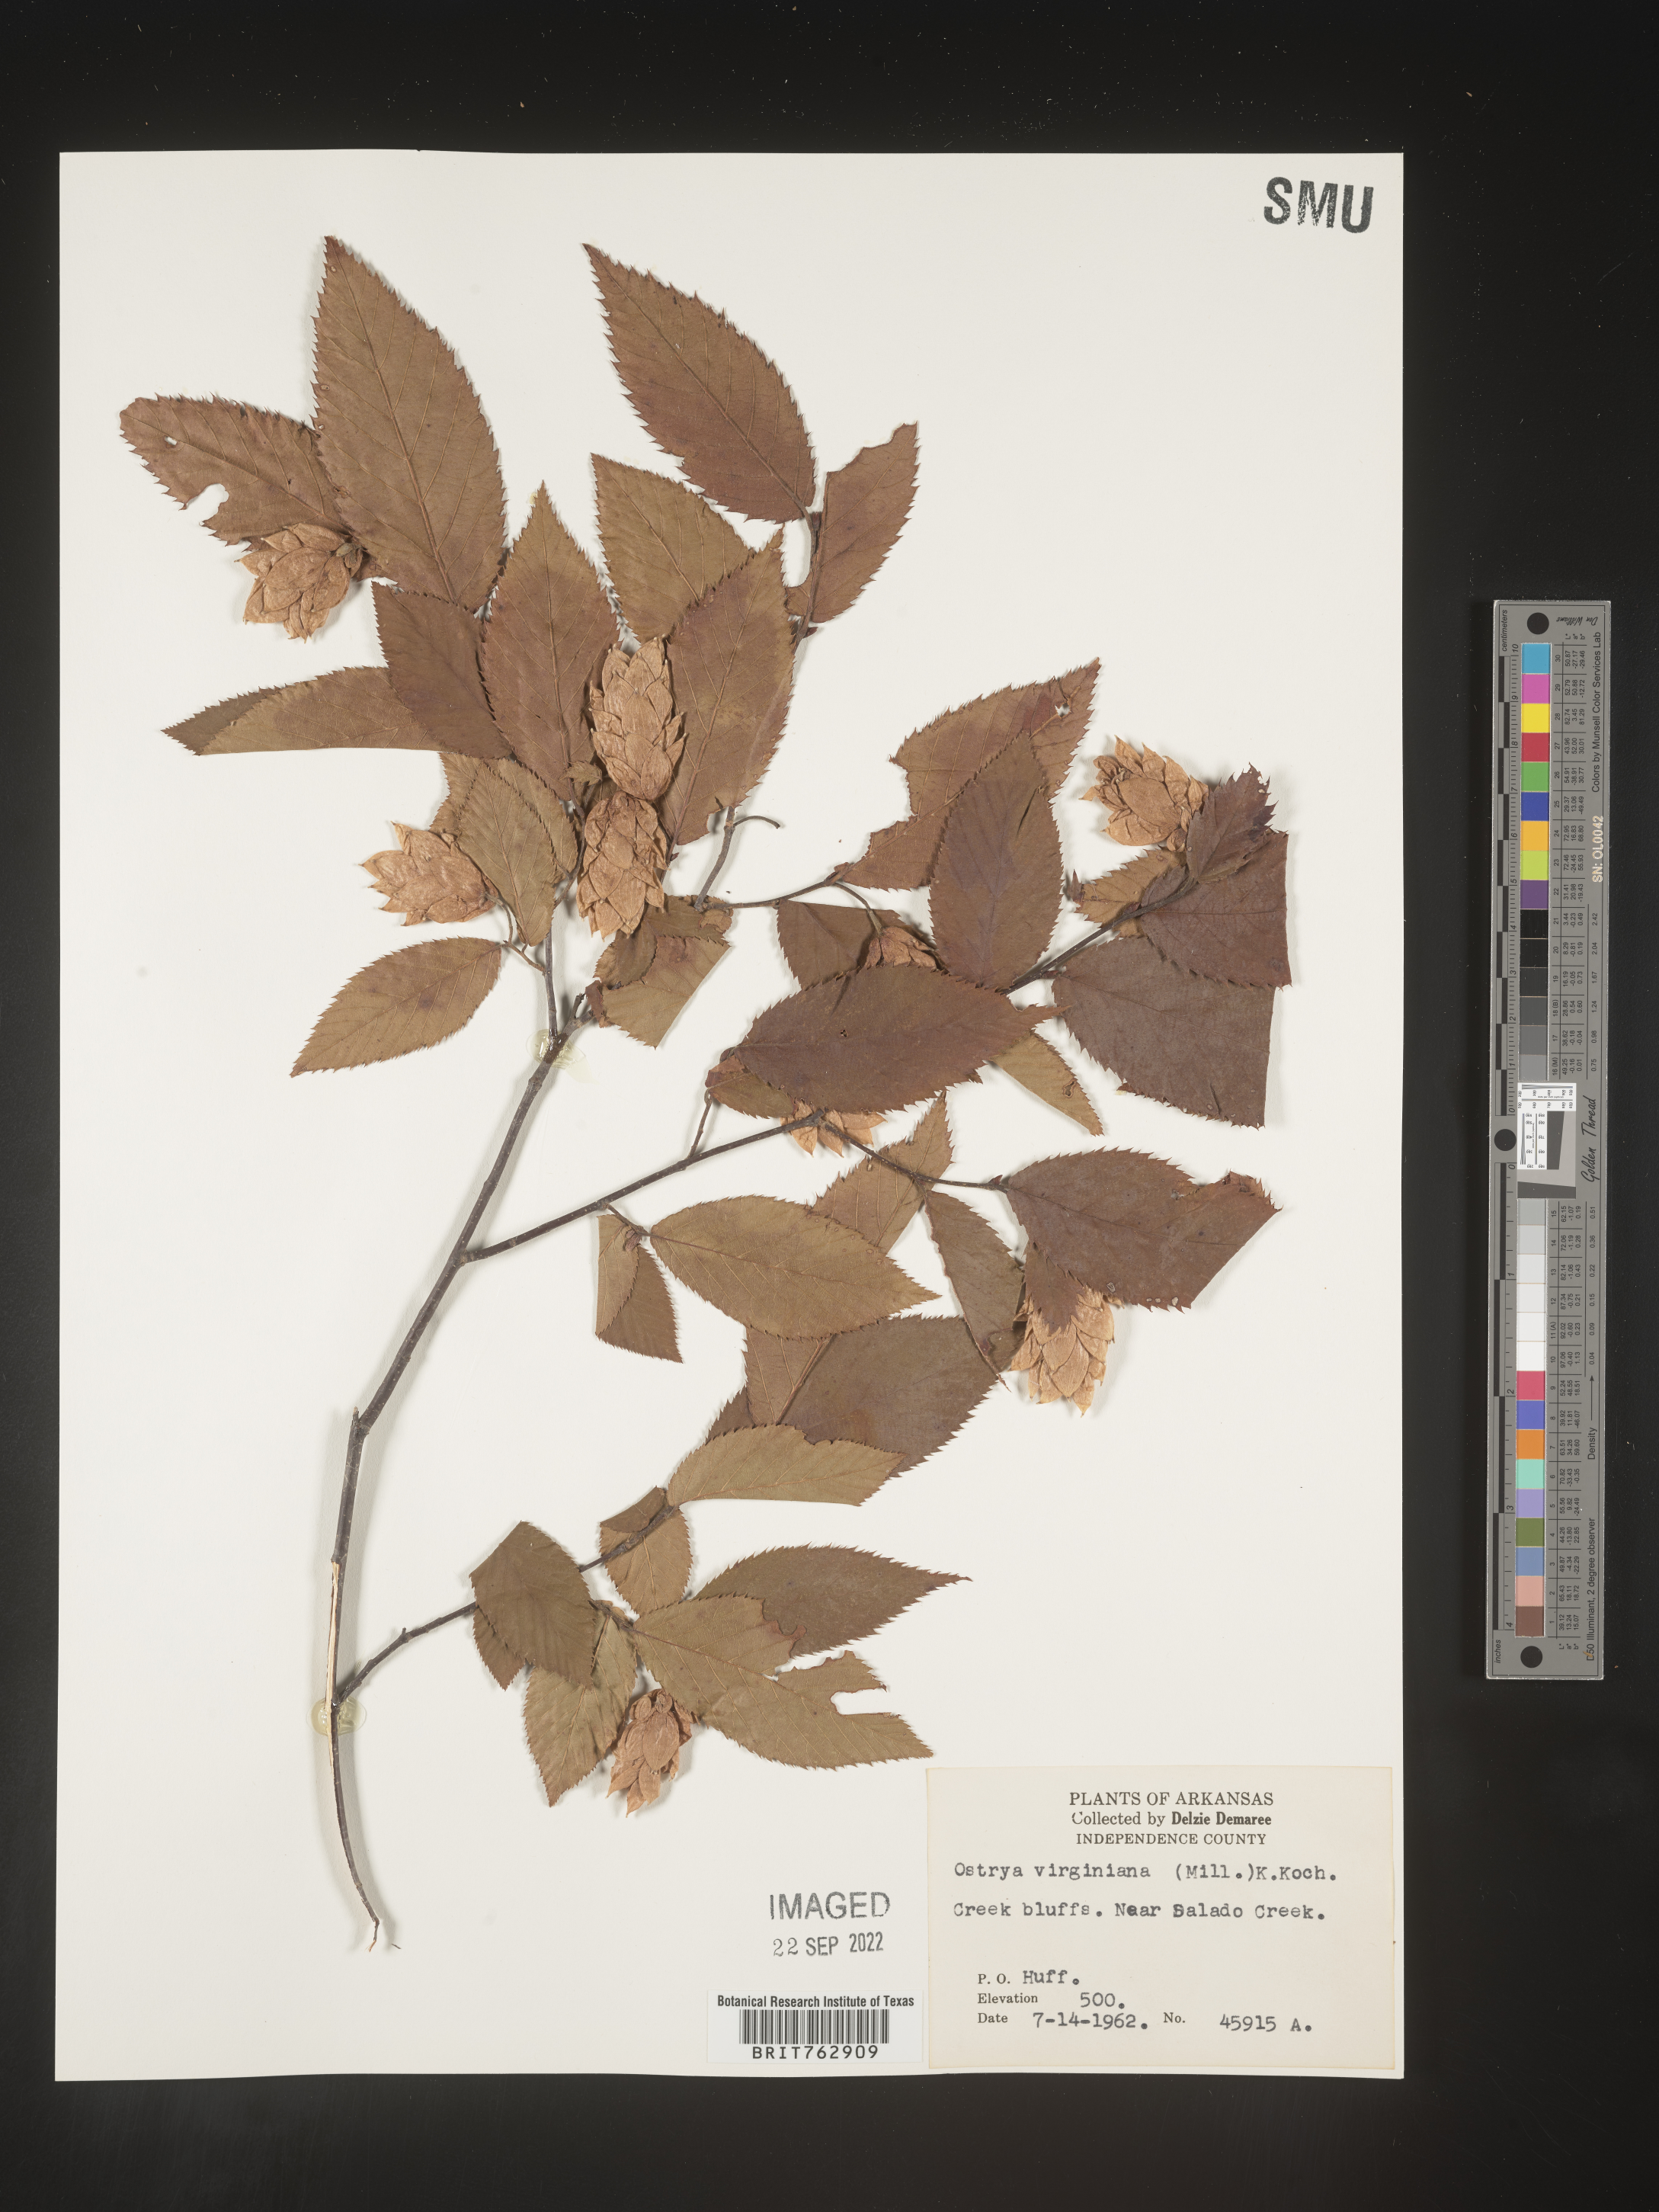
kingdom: Plantae
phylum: Tracheophyta
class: Magnoliopsida
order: Fagales
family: Betulaceae
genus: Ostrya
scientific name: Ostrya virginiana
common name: Ironwood
